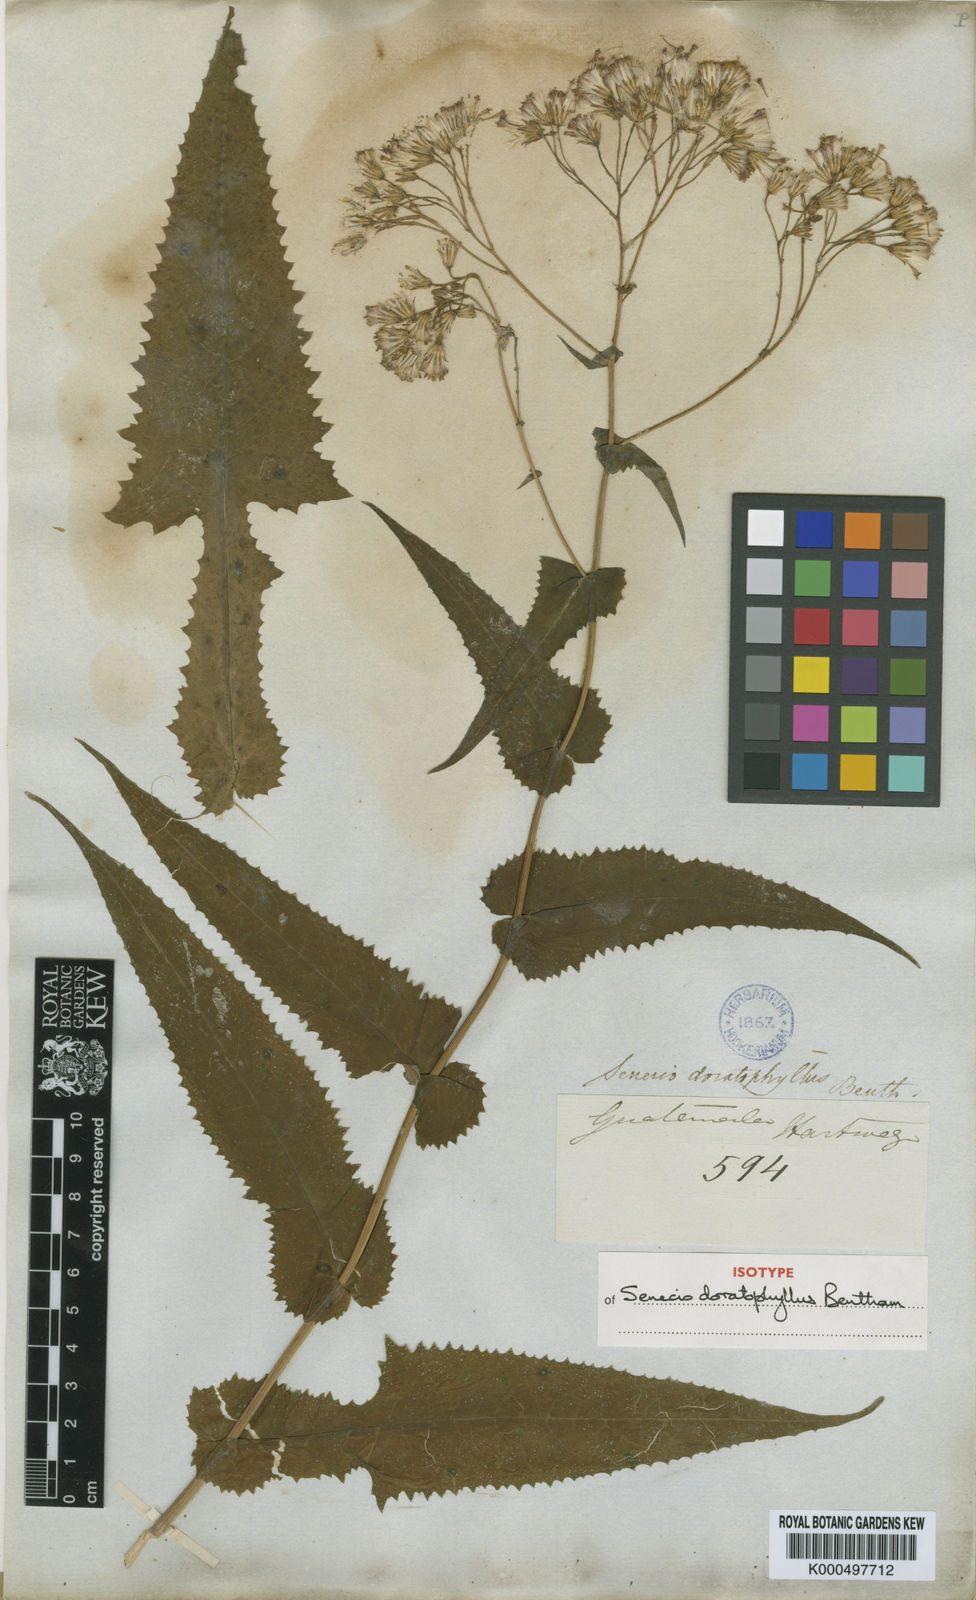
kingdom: Plantae
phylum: Tracheophyta
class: Magnoliopsida
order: Asterales
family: Asteraceae
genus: Senecio
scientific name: Senecio doratophyllus
